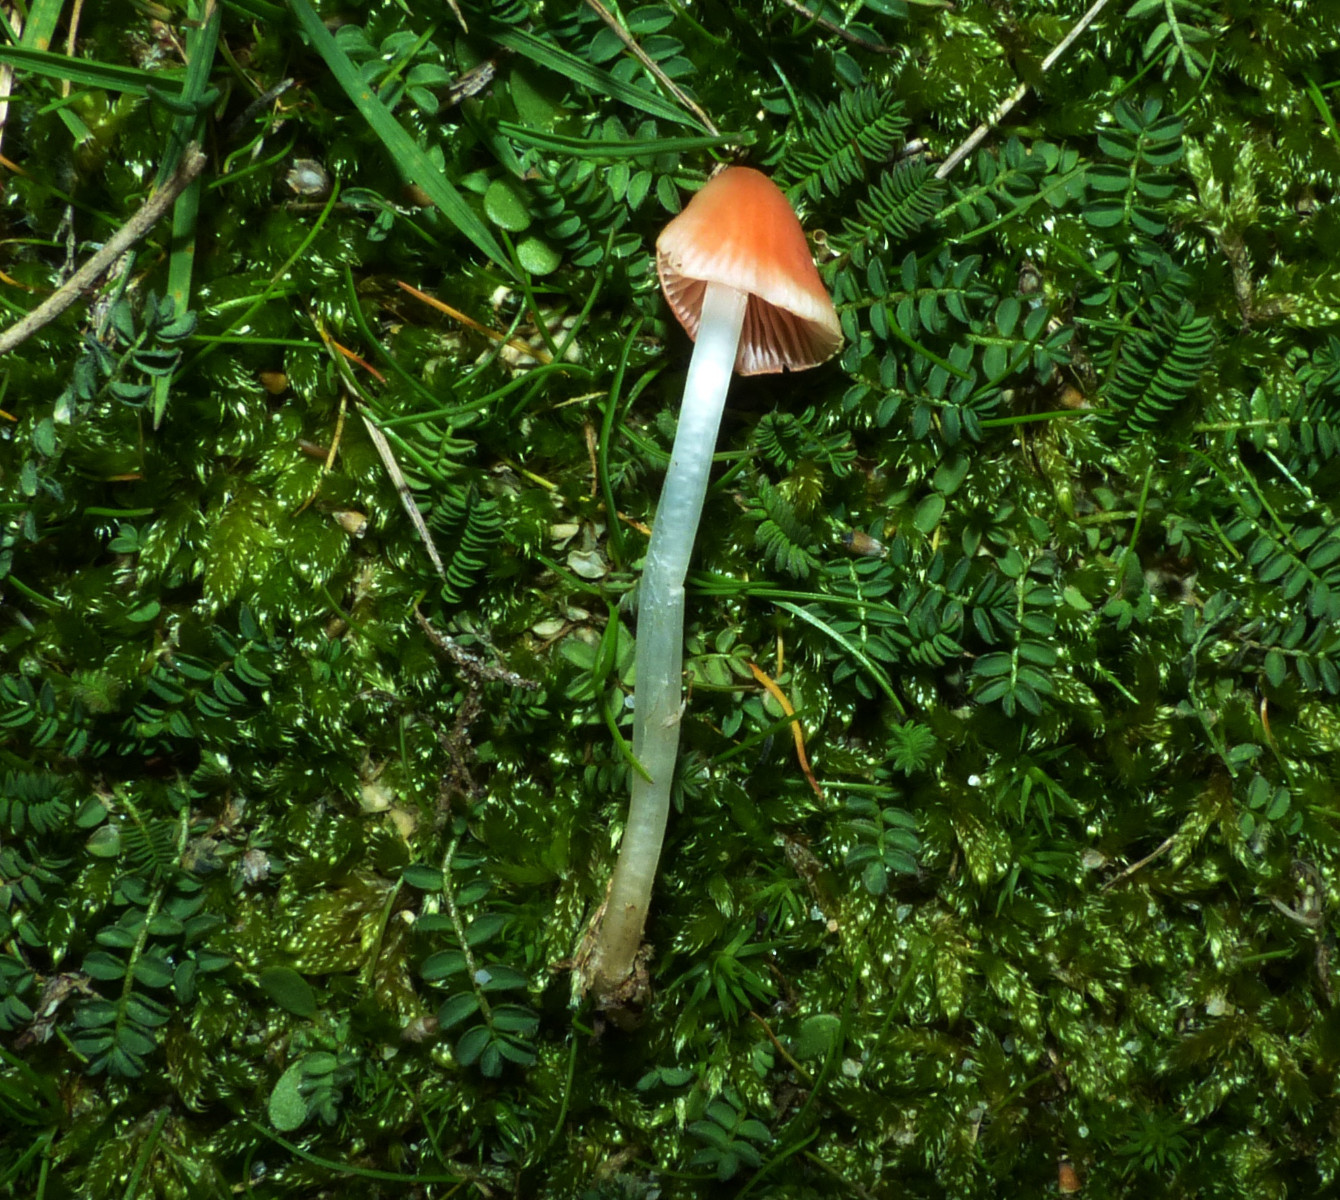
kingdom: Fungi
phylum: Basidiomycota
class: Agaricomycetes
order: Agaricales
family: Mycenaceae
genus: Atheniella
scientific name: Atheniella adonis
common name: rønnerød huesvamp
